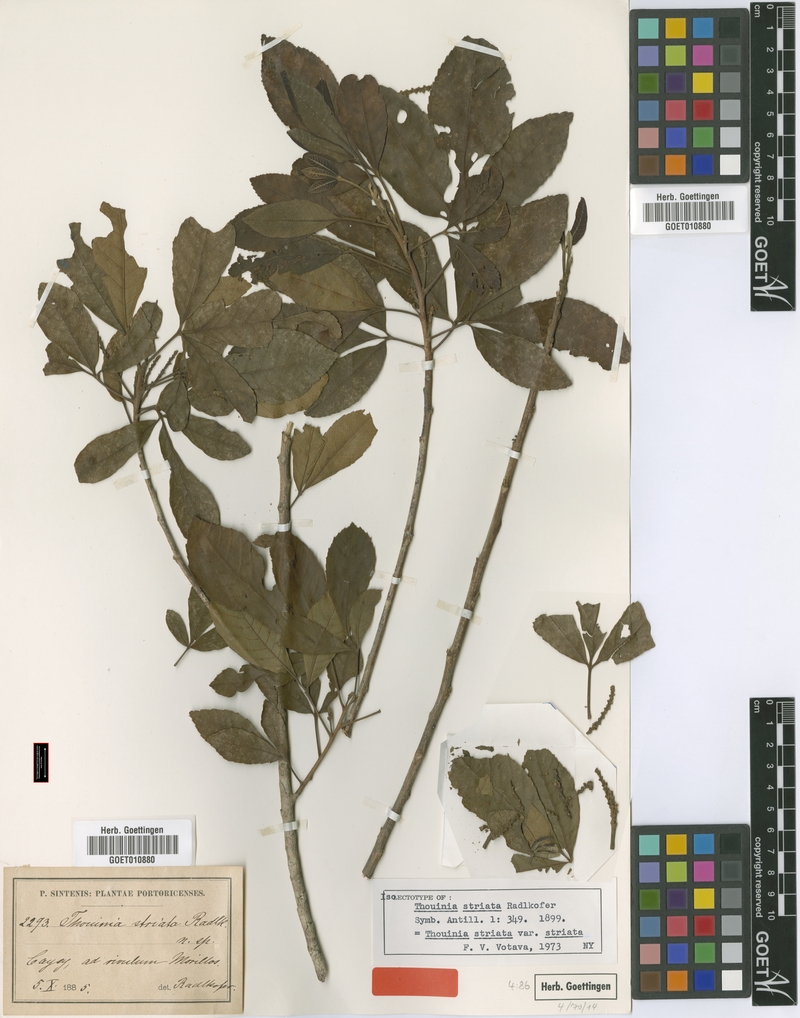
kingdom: Plantae
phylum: Tracheophyta
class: Magnoliopsida
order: Sapindales
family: Sapindaceae
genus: Thouinia
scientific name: Thouinia striata
